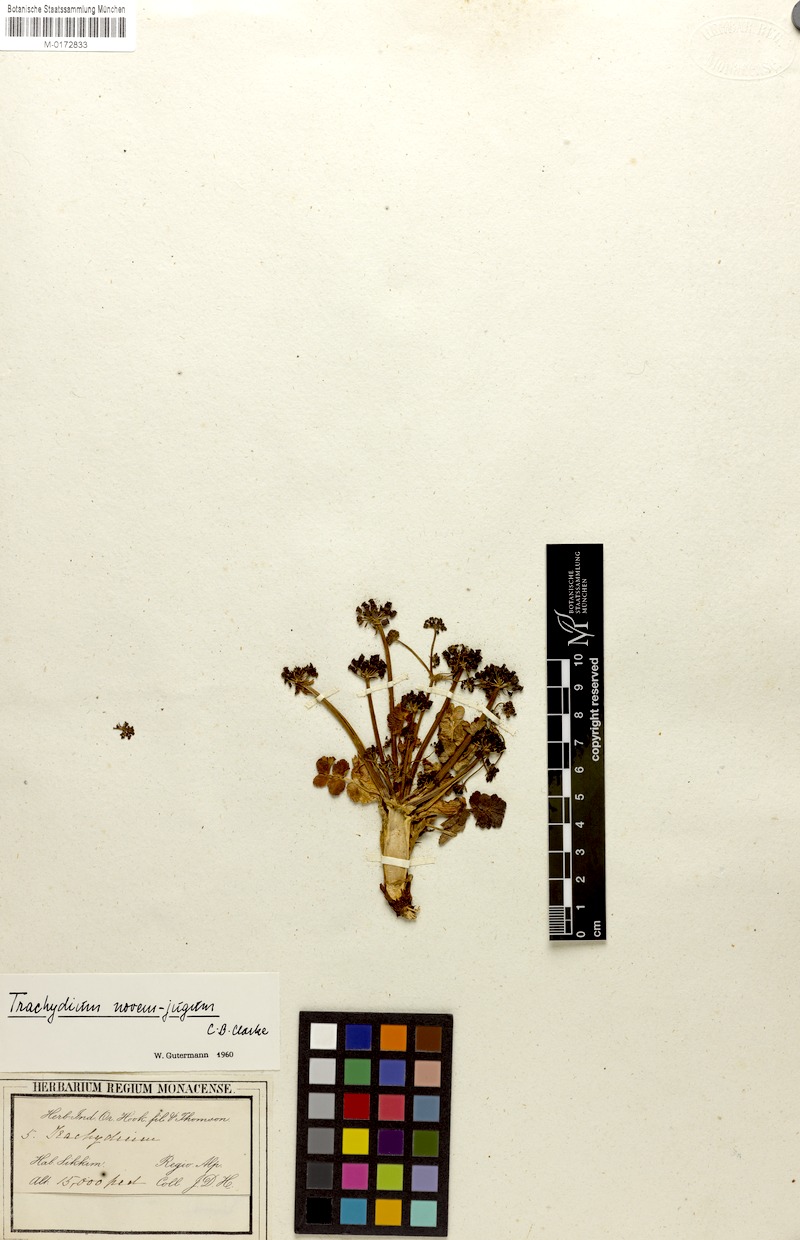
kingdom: Plantae
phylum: Tracheophyta
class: Magnoliopsida
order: Apiales
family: Apiaceae
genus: Chamaesium
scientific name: Chamaesium novem-jugum
